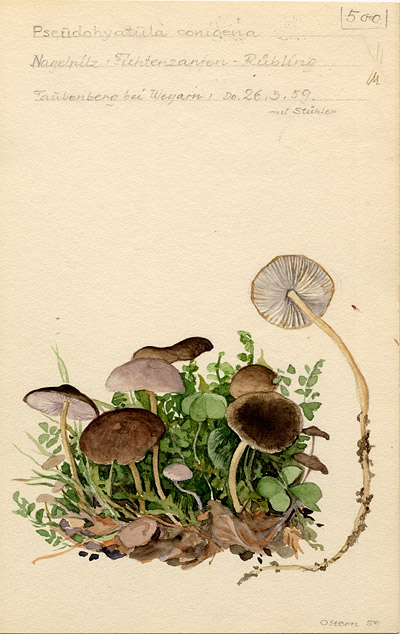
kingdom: Fungi
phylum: Basidiomycota
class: Agaricomycetes
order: Agaricales
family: Physalacriaceae
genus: Strobilurus
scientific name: Strobilurus esculentus
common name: Sprucecone cap
